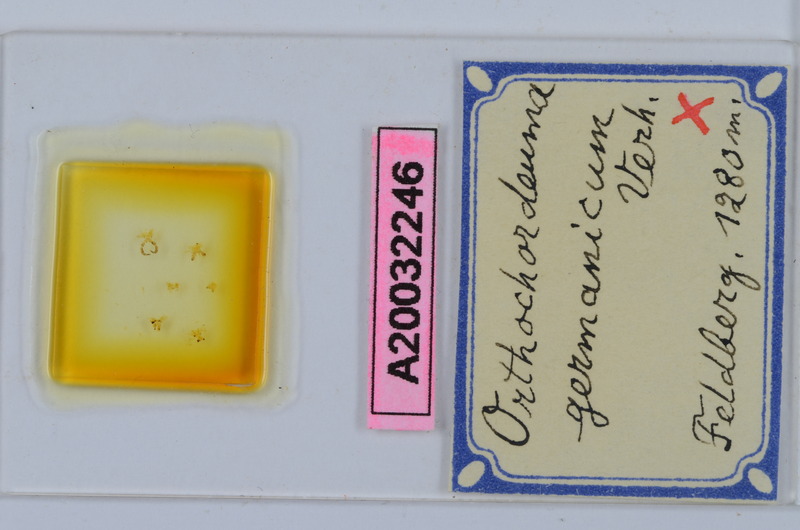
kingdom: Animalia
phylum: Arthropoda
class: Diplopoda
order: Chordeumatida
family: Chordeumatidae
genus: Mycogona
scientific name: Mycogona germanica
